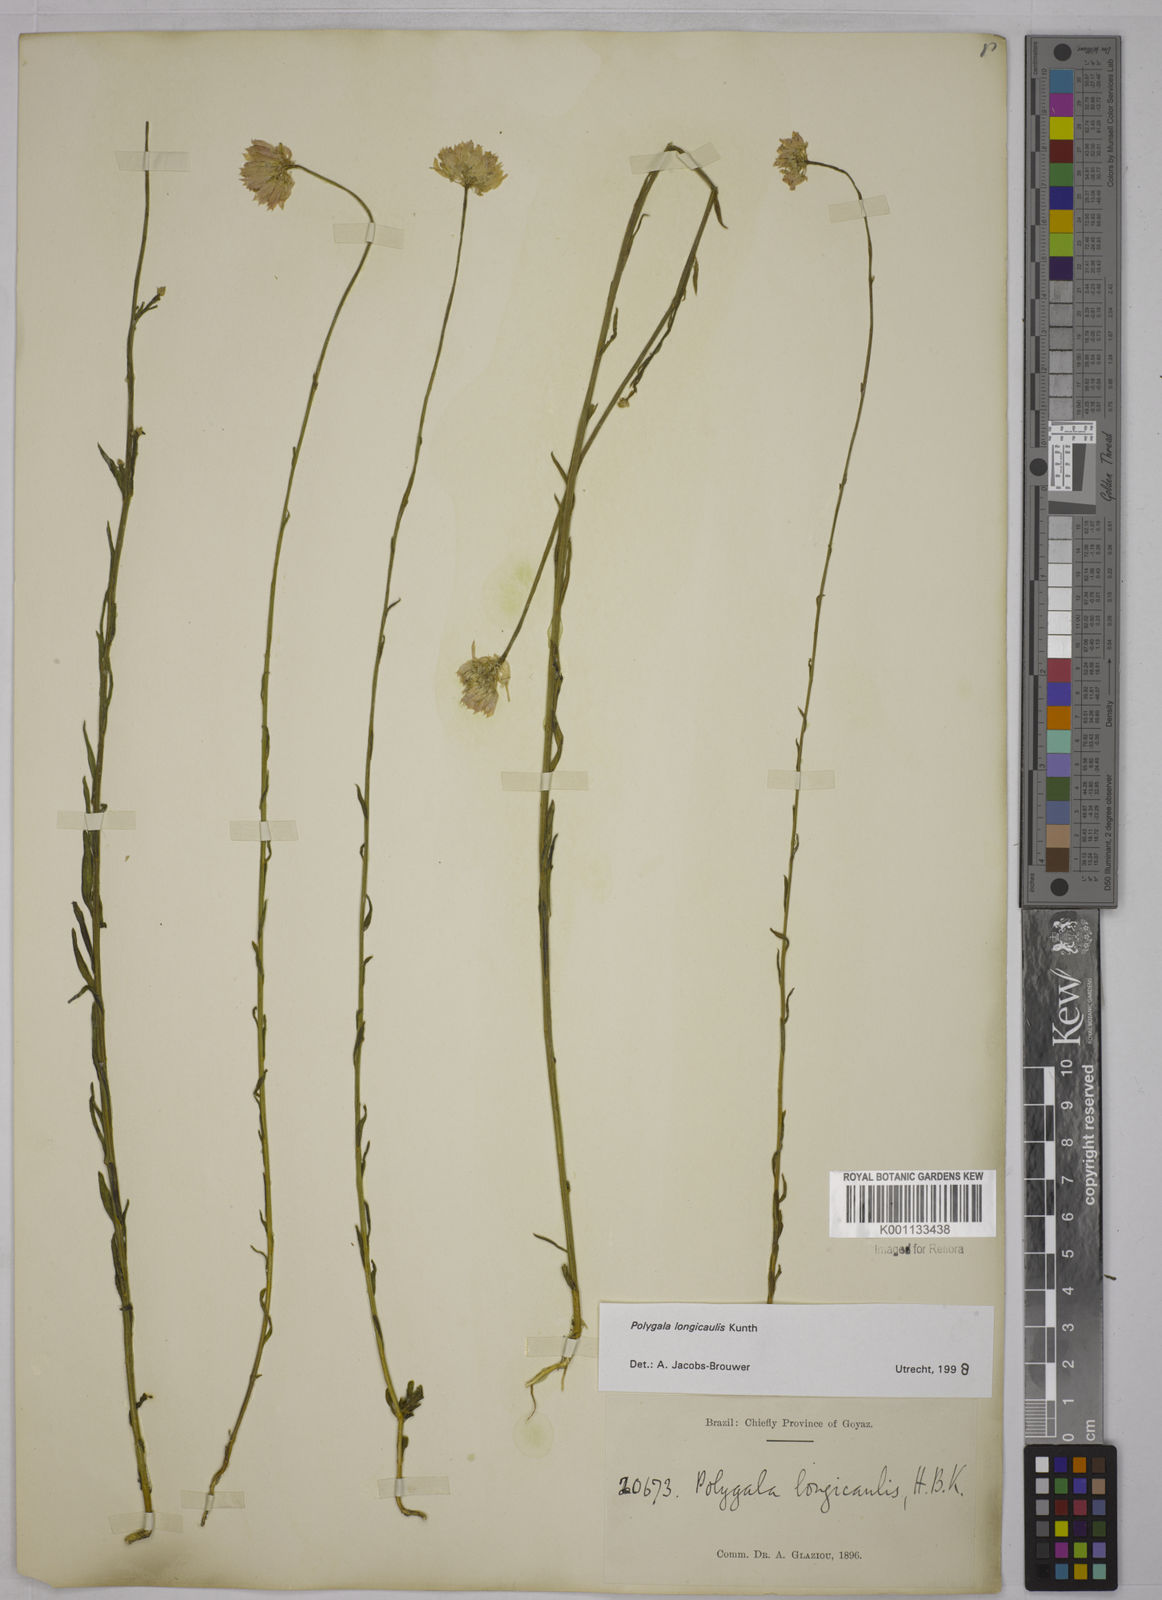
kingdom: Plantae
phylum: Tracheophyta
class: Magnoliopsida
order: Fabales
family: Polygalaceae
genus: Polygala
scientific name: Polygala longicaulis
